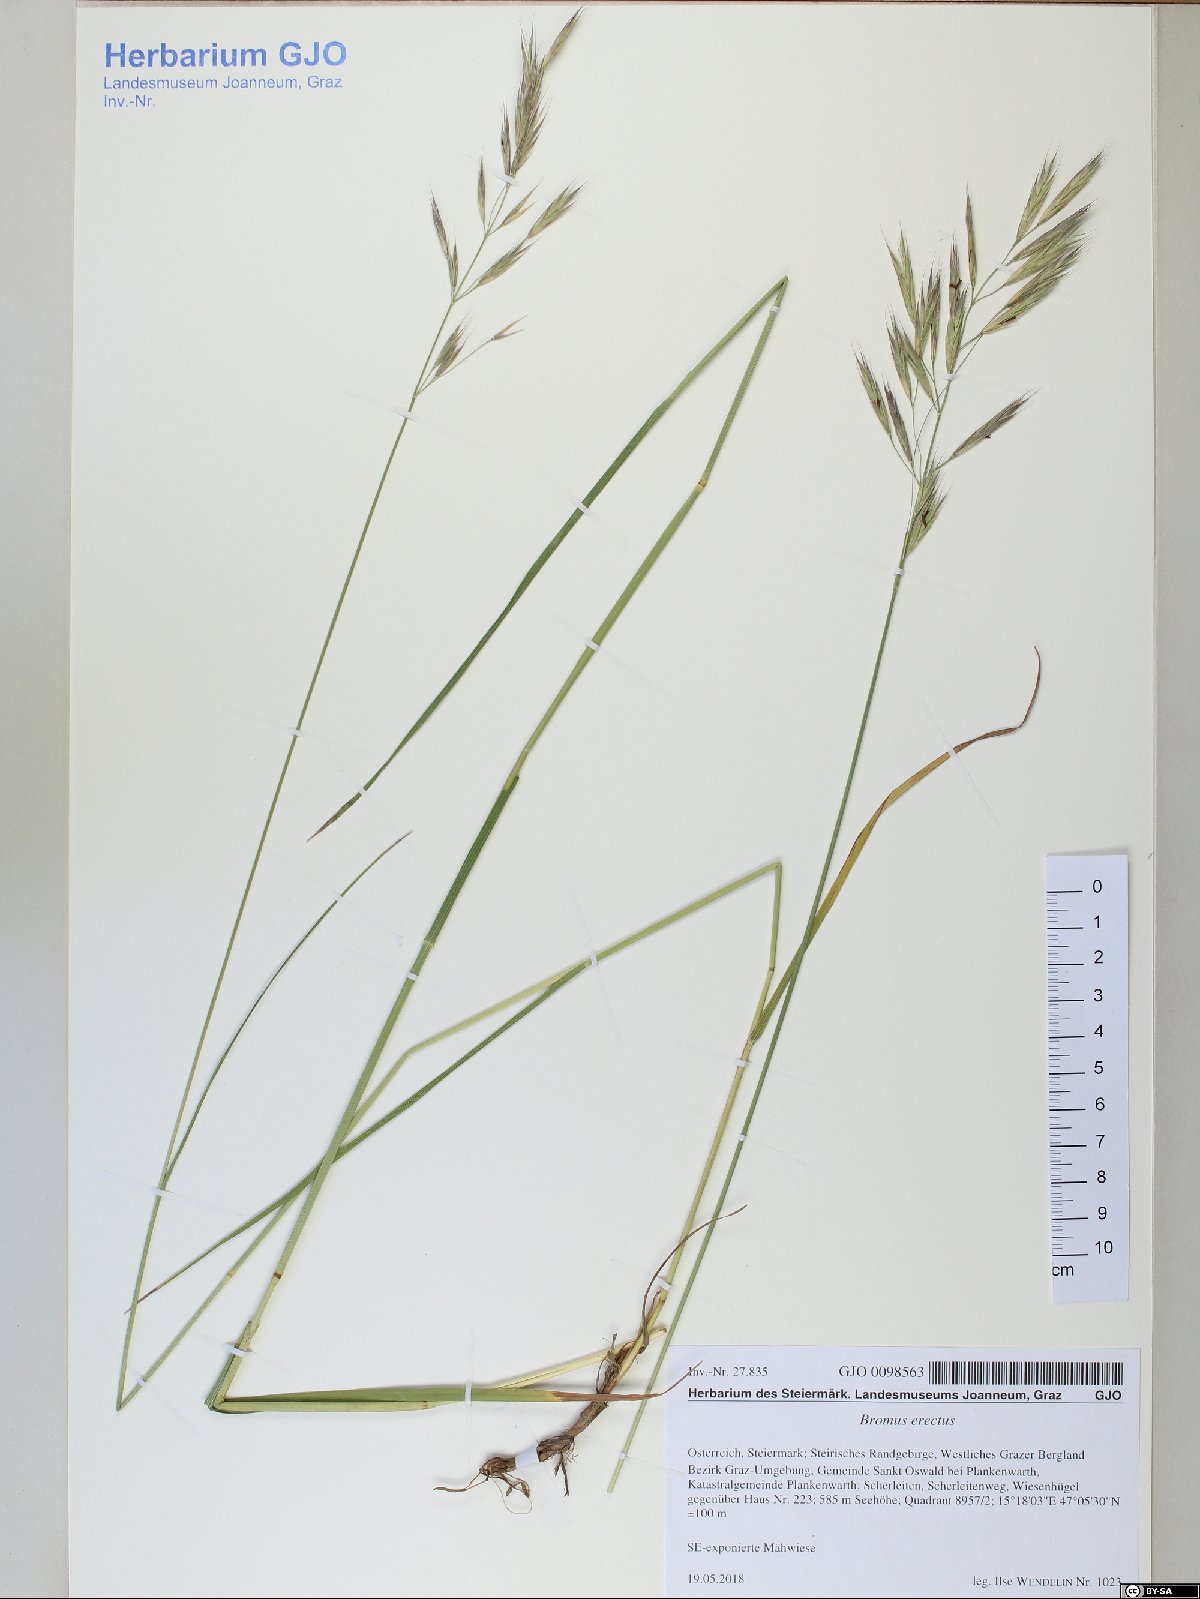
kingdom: Plantae
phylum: Tracheophyta
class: Liliopsida
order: Poales
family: Poaceae
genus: Bromus
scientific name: Bromus erectus
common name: Erect brome
